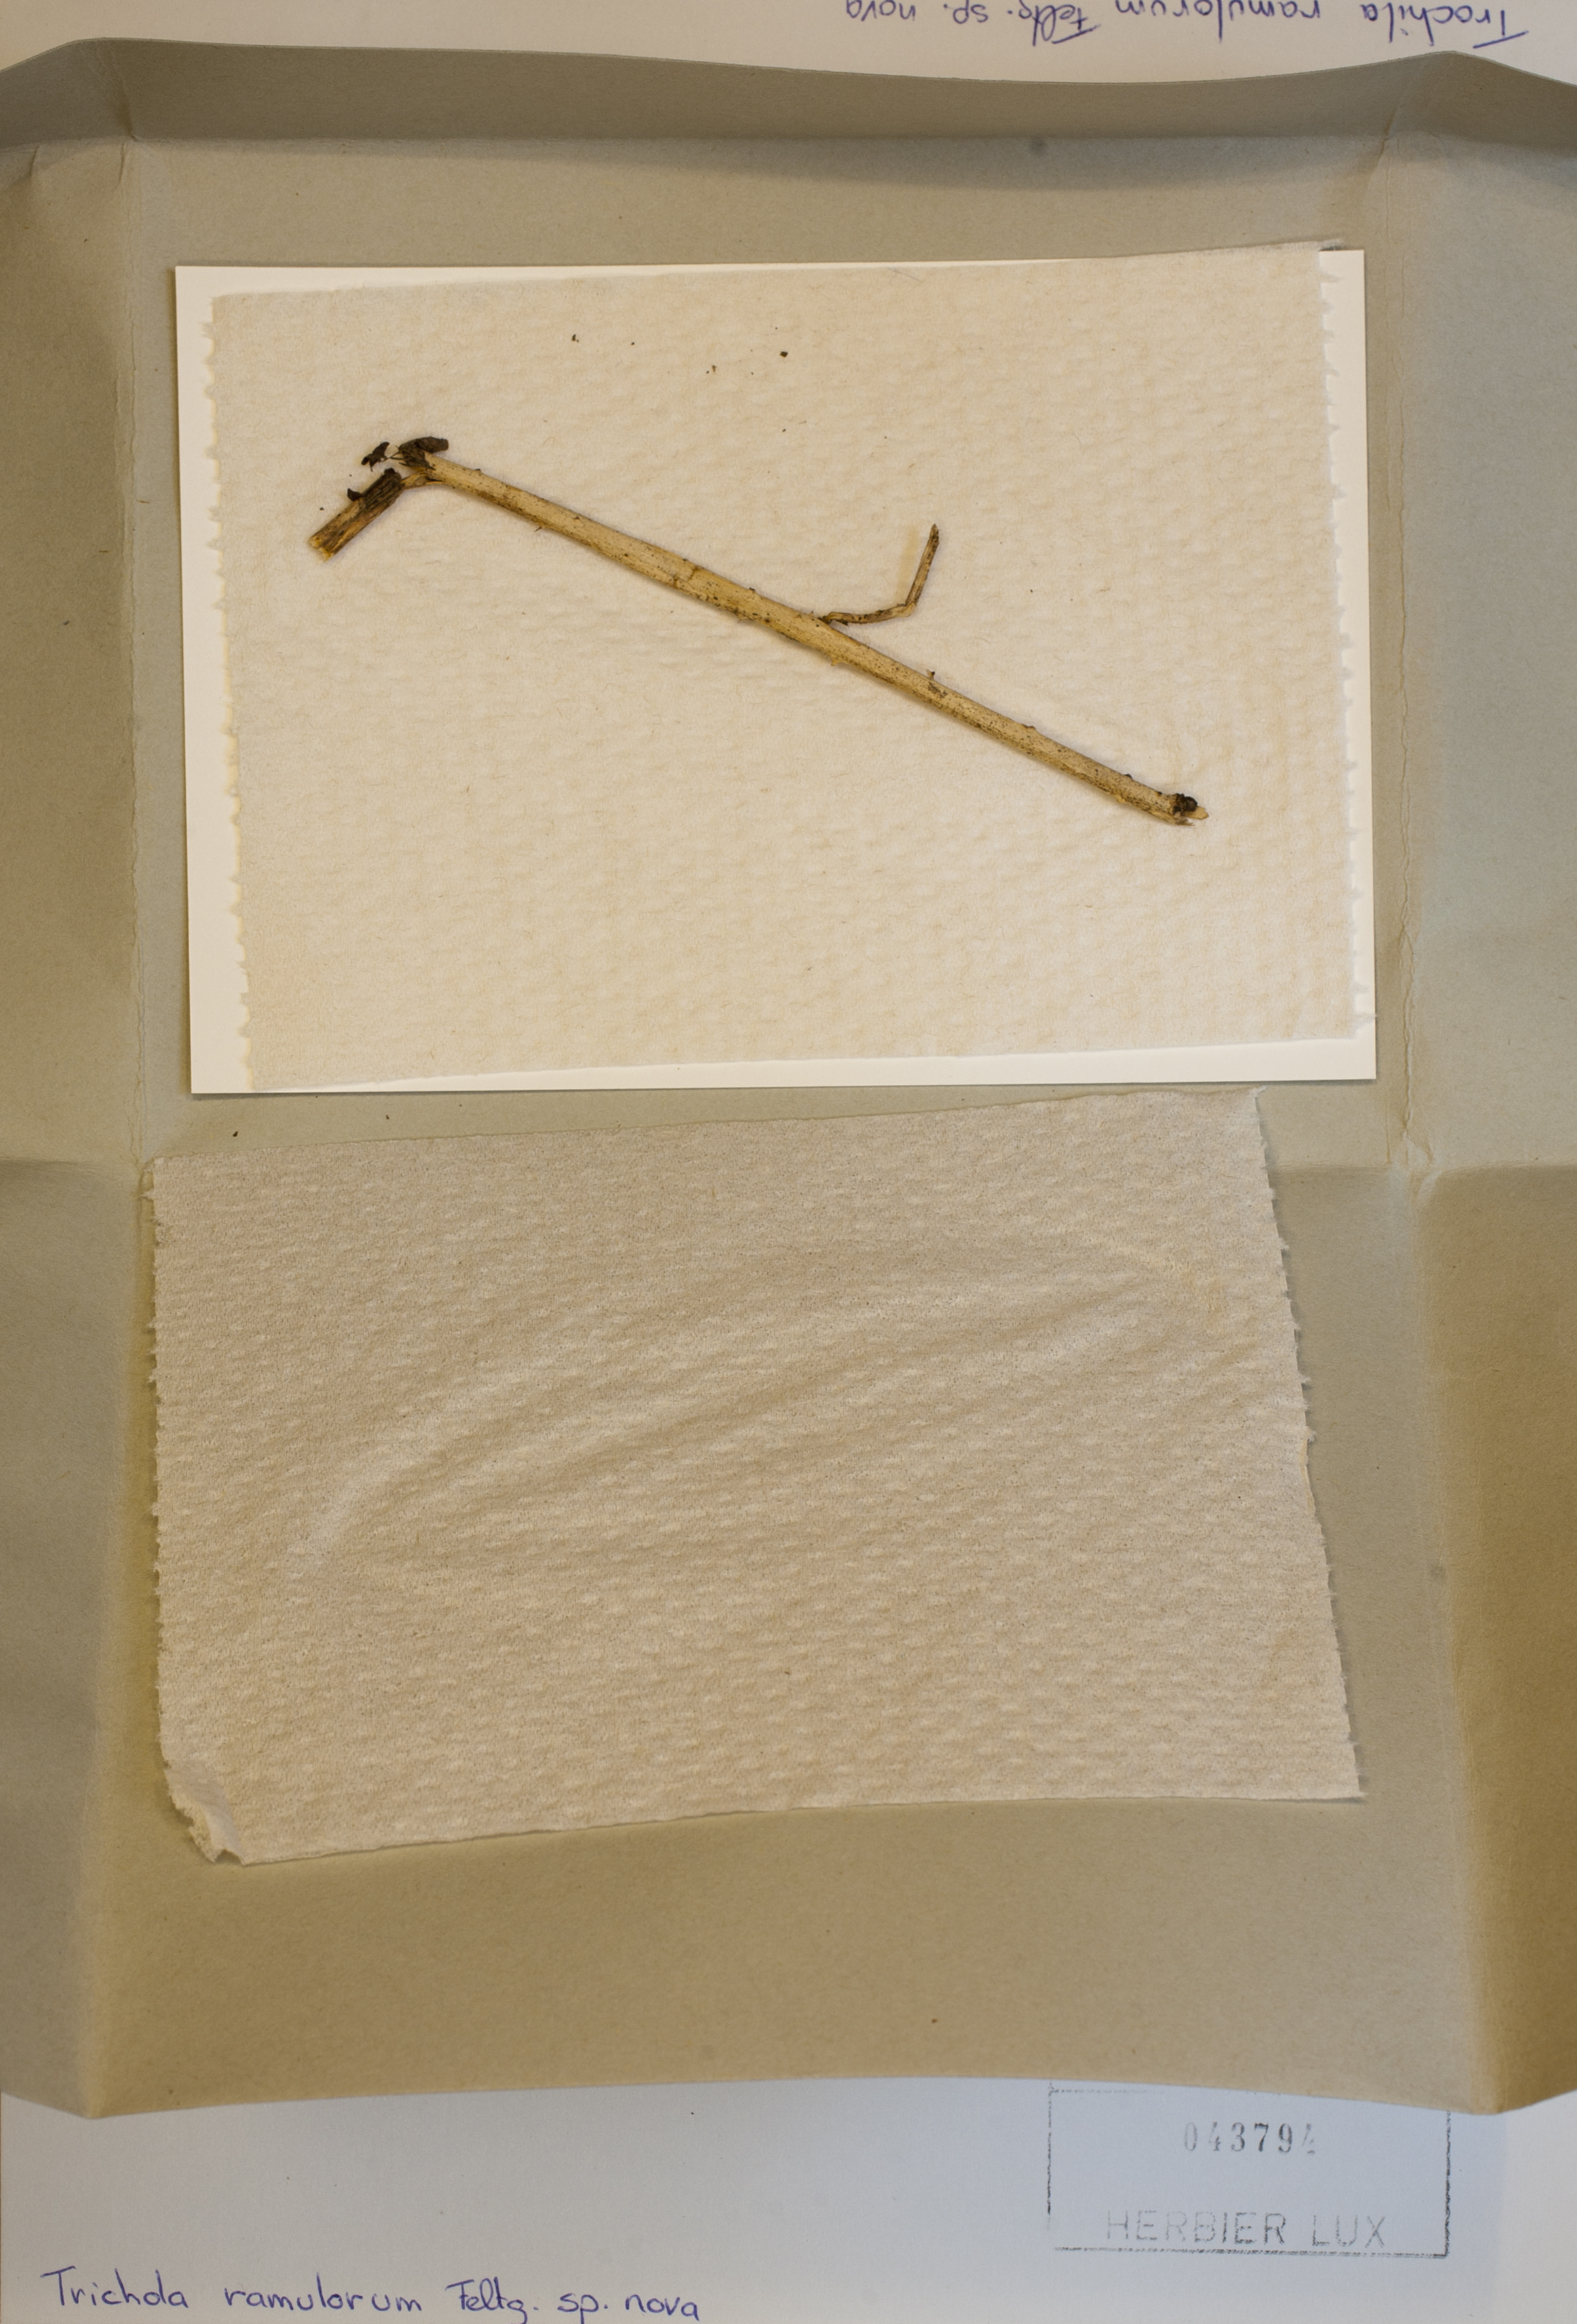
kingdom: Fungi
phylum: Ascomycota
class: Leotiomycetes
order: Helotiales
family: Cenangiaceae
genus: Trochila
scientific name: Trochila ramulorum
